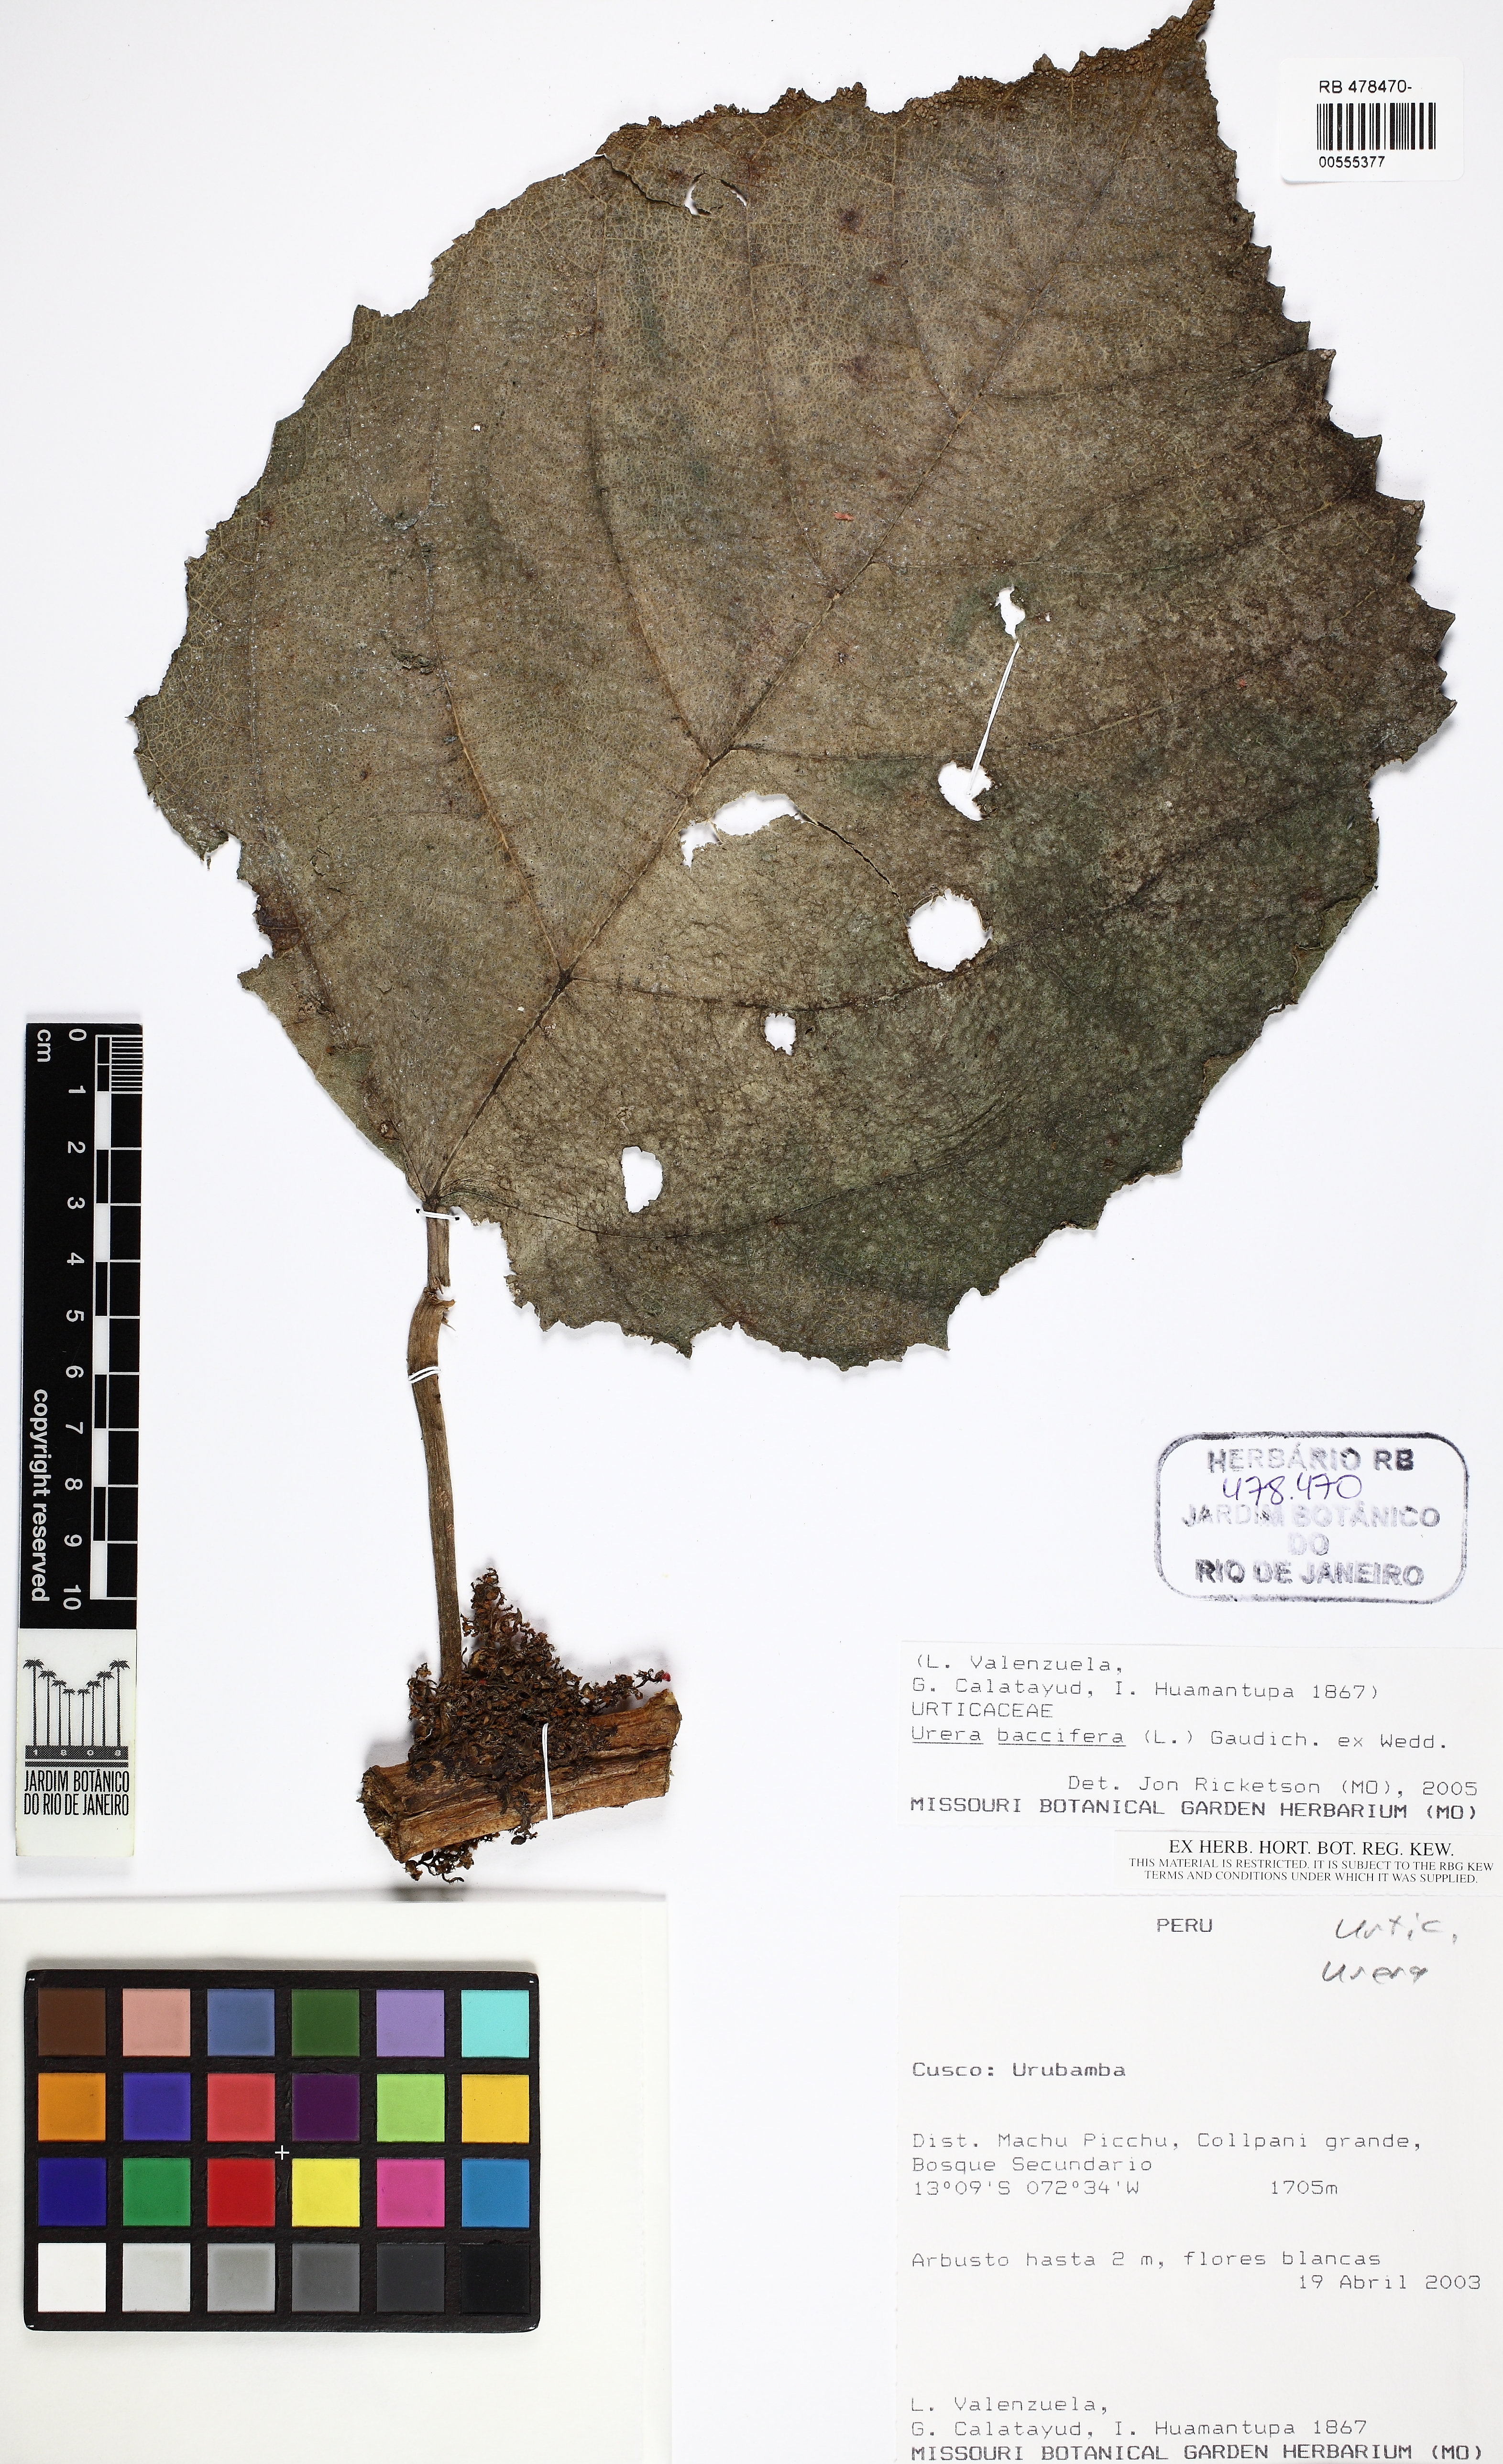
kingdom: Plantae
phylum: Tracheophyta
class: Magnoliopsida
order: Rosales
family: Urticaceae
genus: Urera
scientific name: Urera baccifera
